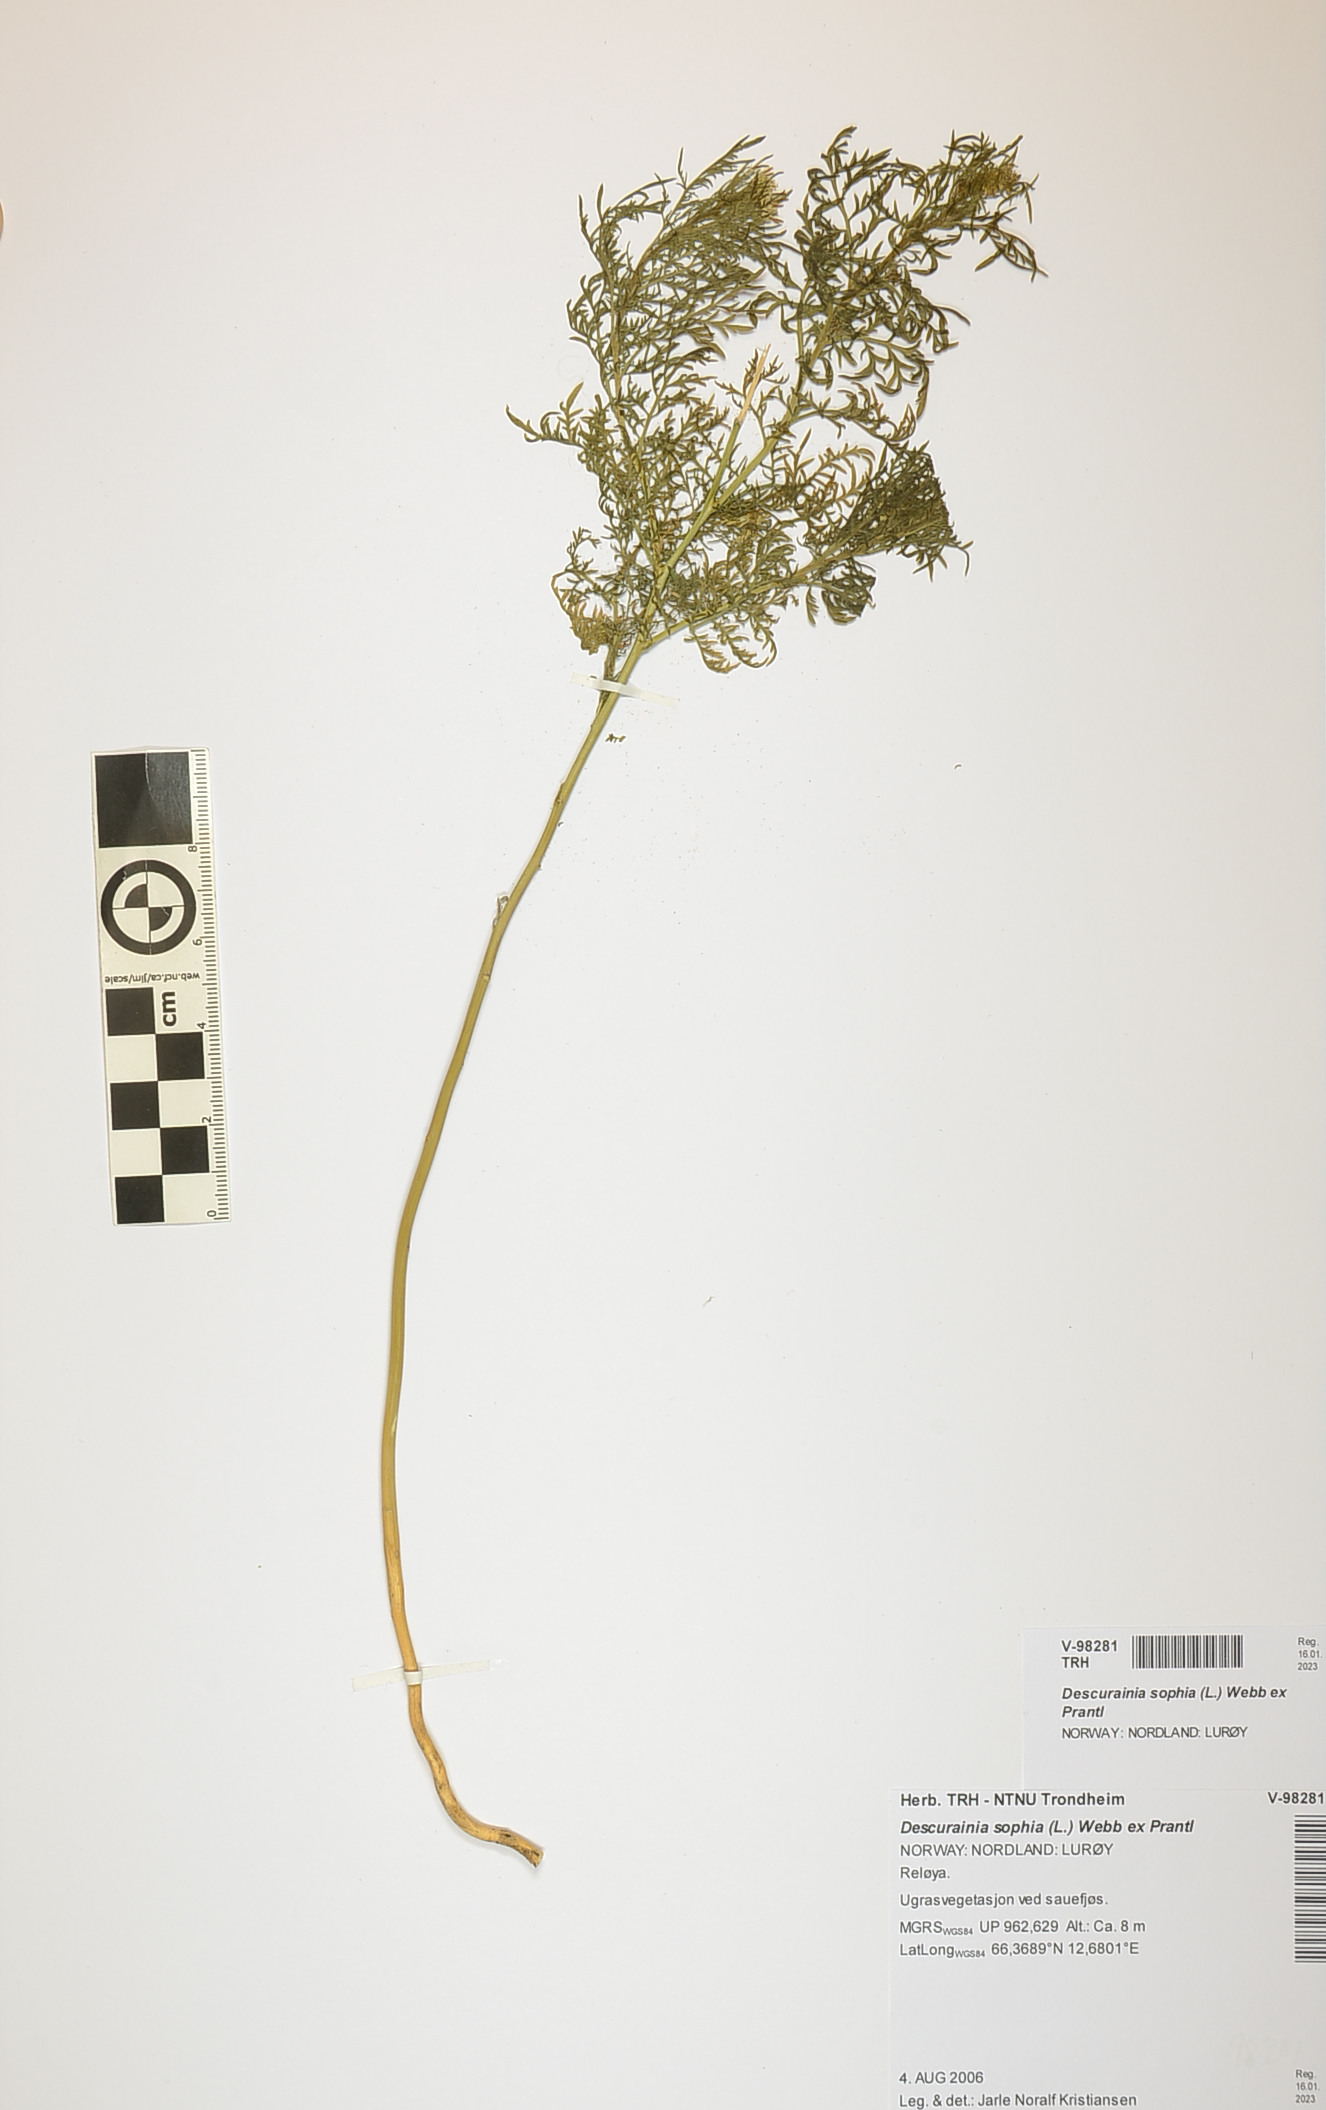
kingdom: Plantae
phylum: Tracheophyta
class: Magnoliopsida
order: Brassicales
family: Brassicaceae
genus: Descurainia
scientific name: Descurainia sophia
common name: Flixweed
